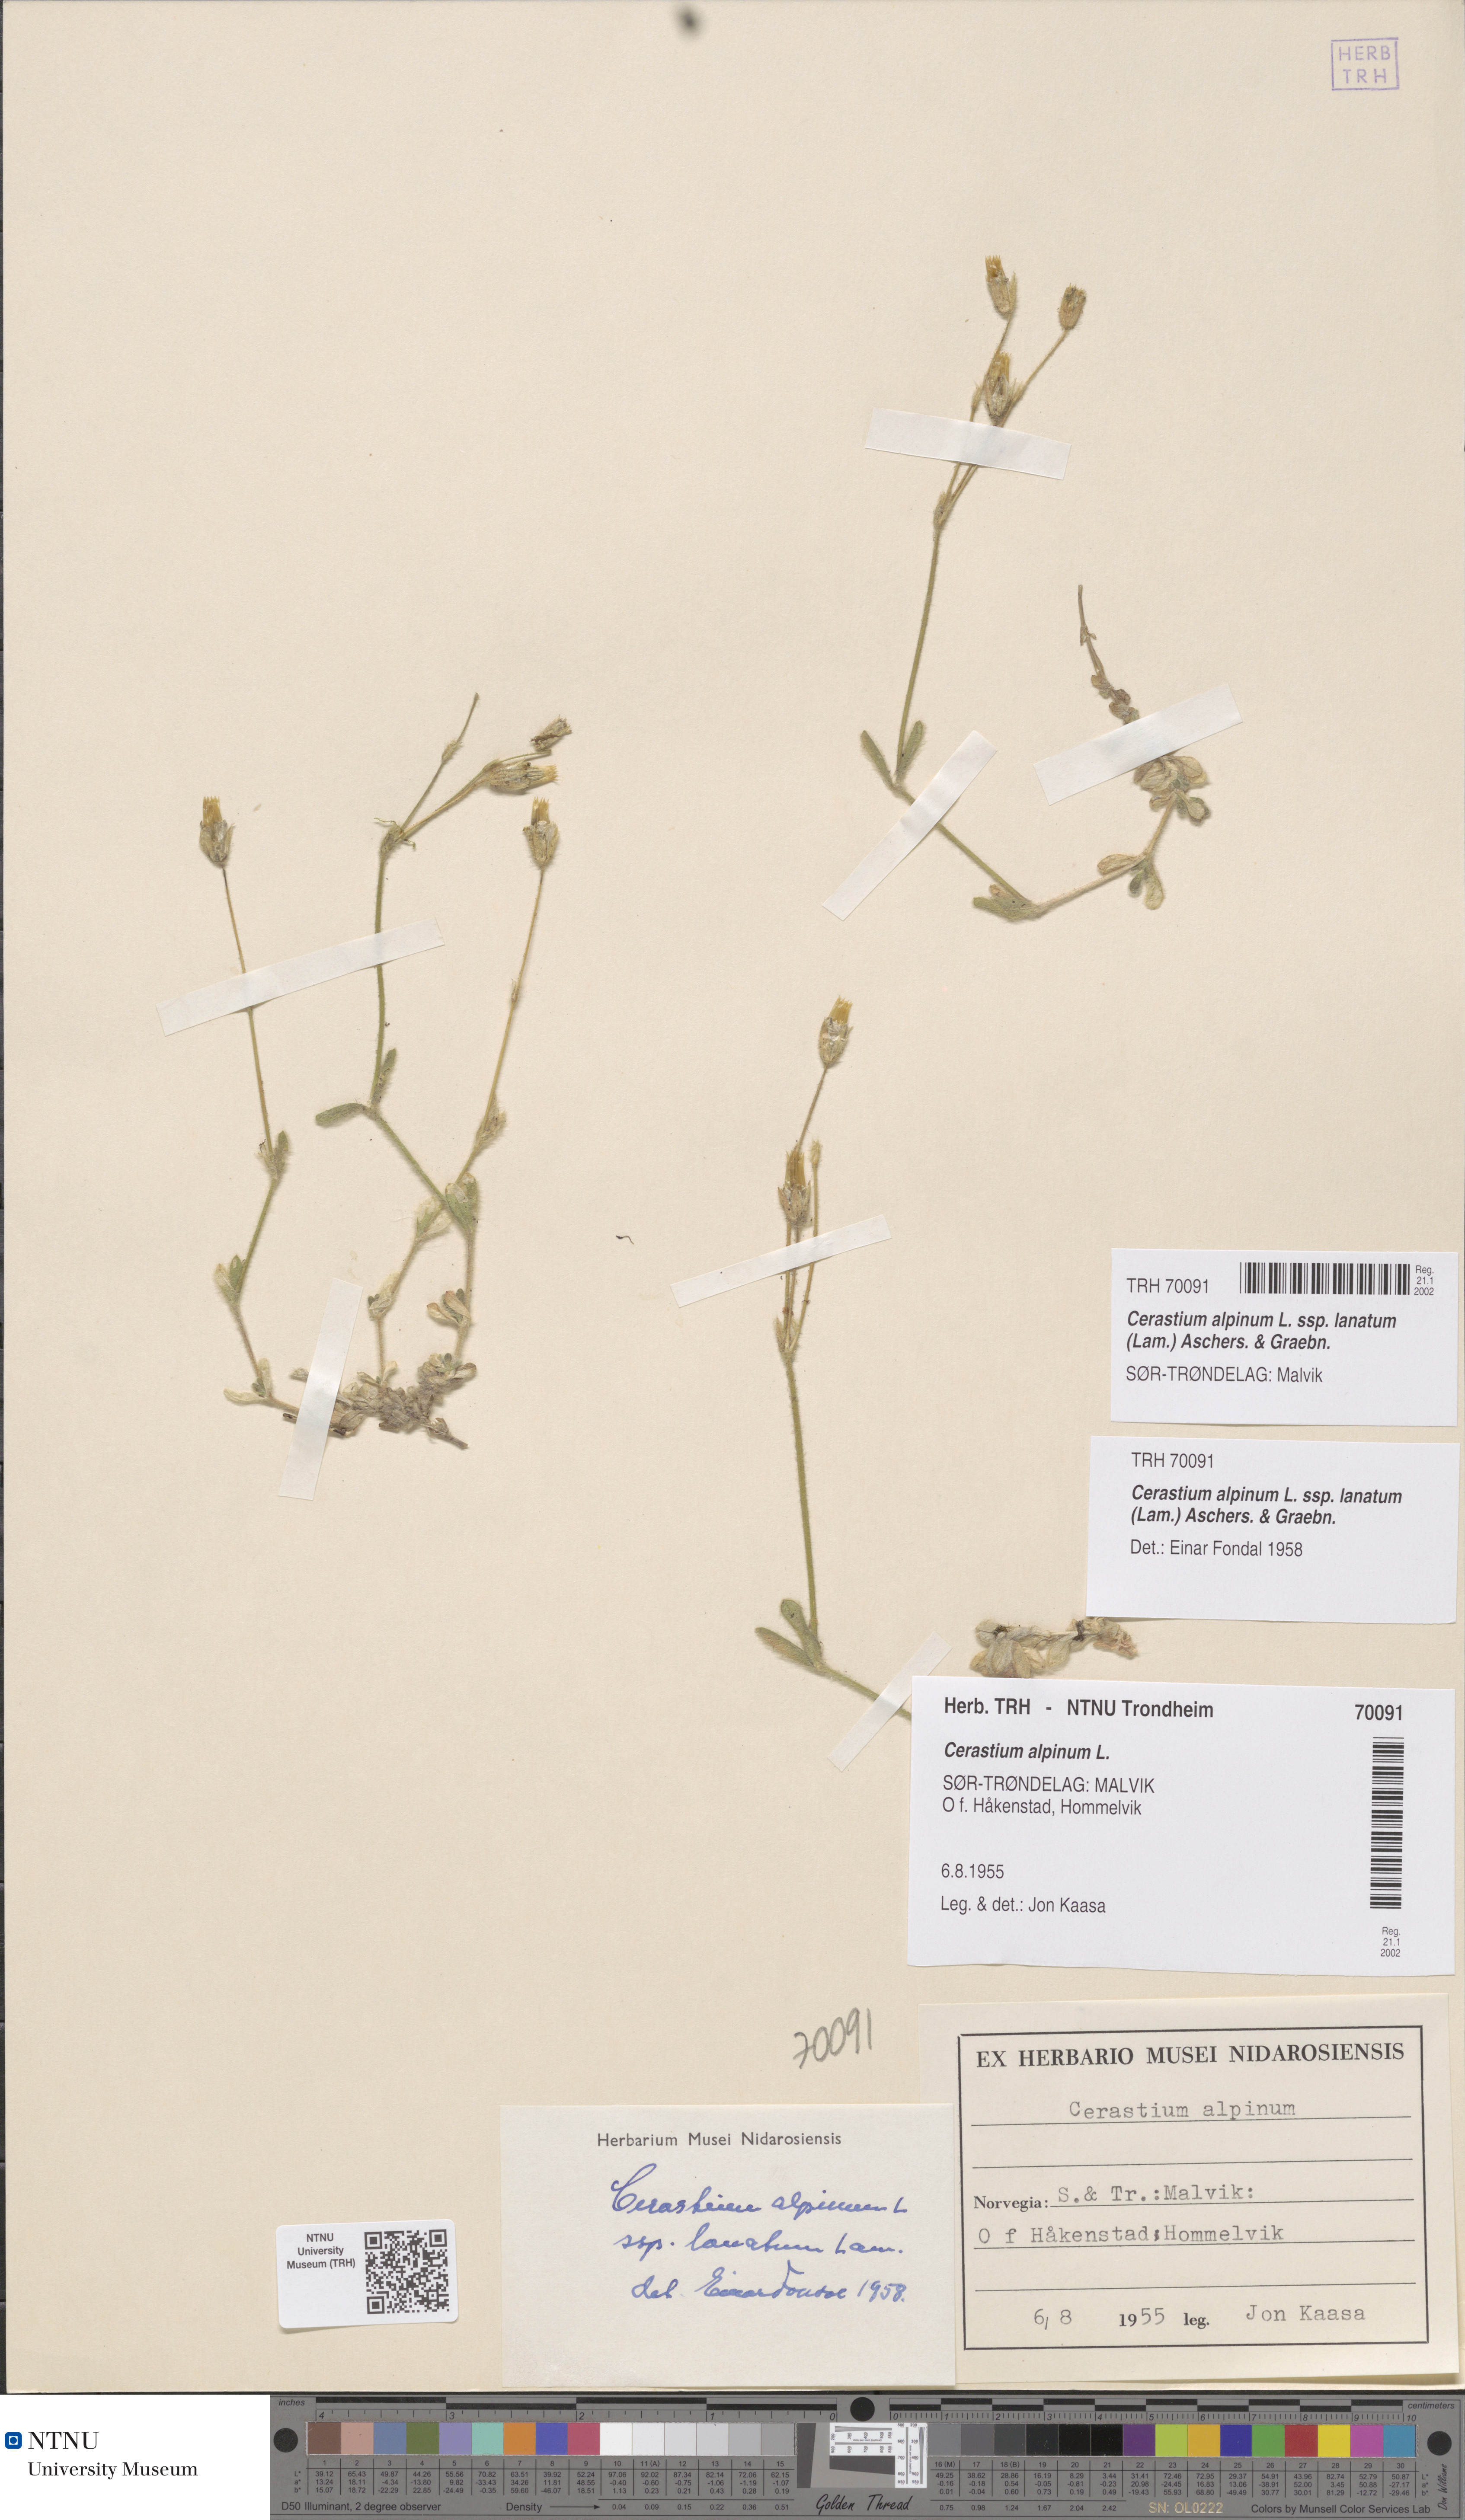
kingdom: Plantae
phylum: Tracheophyta
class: Magnoliopsida
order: Caryophyllales
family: Caryophyllaceae
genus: Cerastium
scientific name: Cerastium alpinum
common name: Alpine mouse-ear
